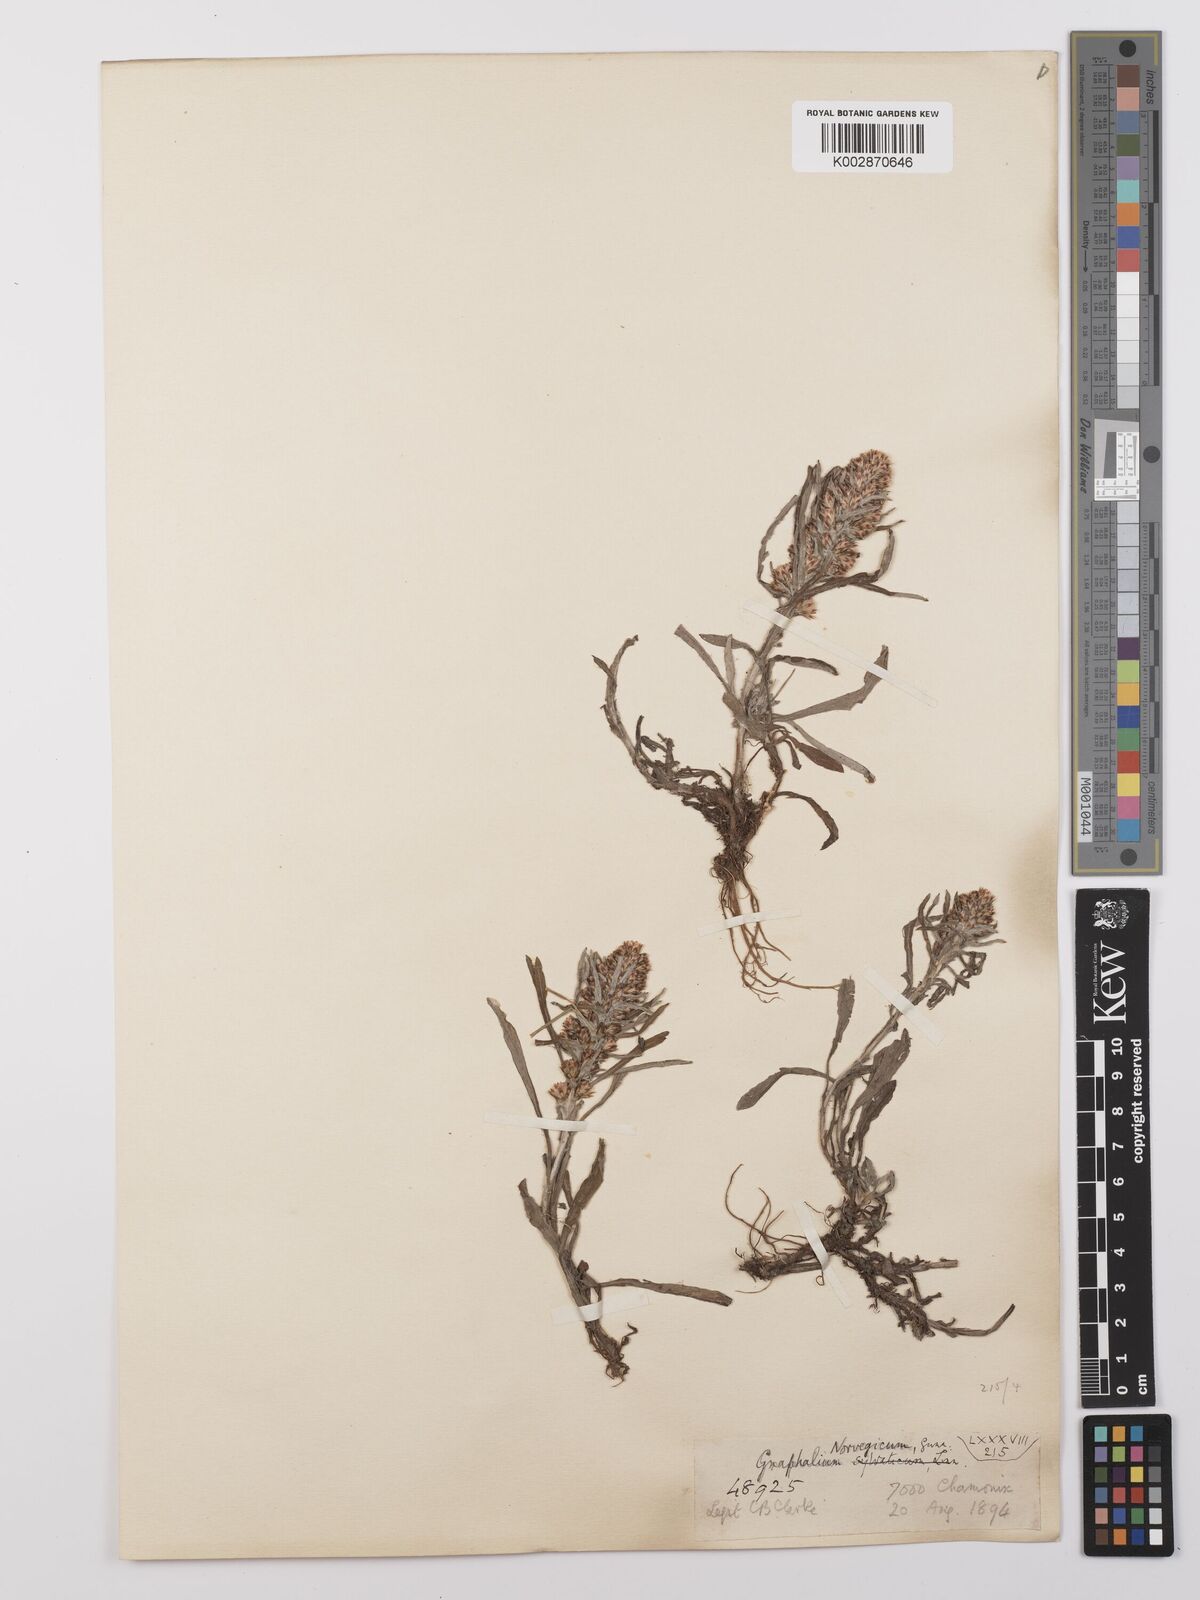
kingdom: Plantae
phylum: Tracheophyta
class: Magnoliopsida
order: Asterales
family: Asteraceae
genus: Omalotheca
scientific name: Omalotheca sylvatica
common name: Heath cudweed
